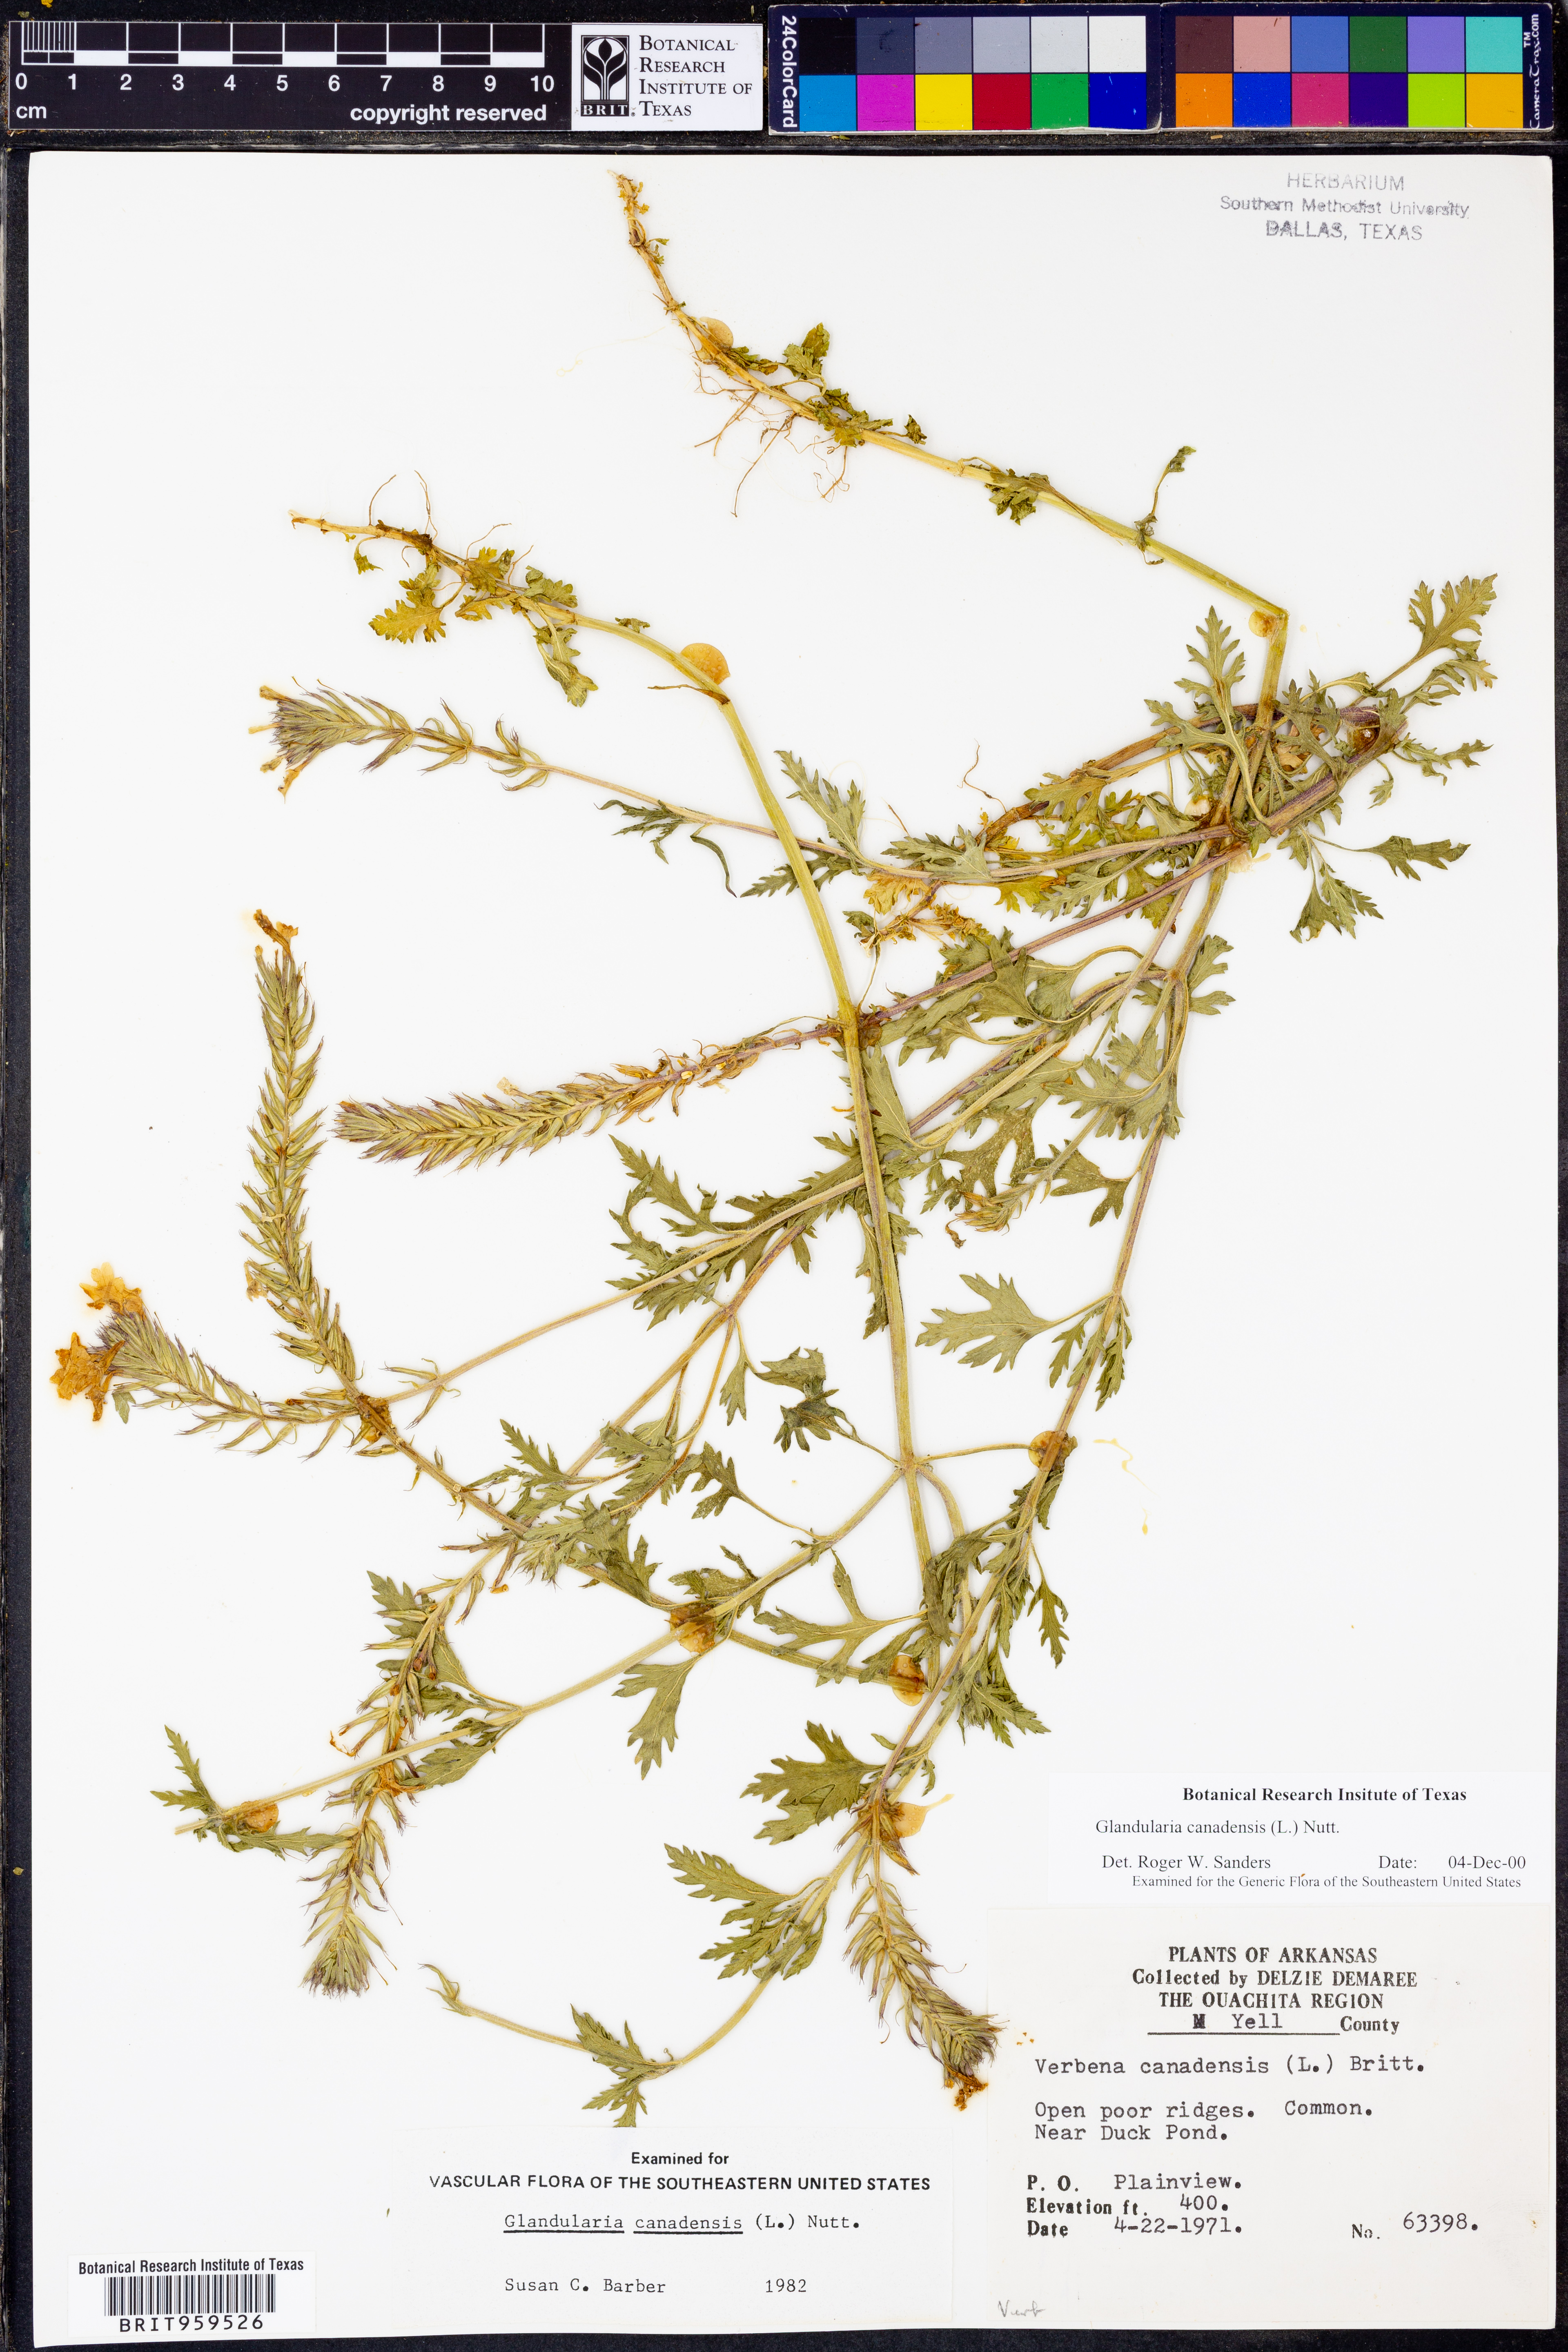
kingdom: Plantae
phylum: Tracheophyta
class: Magnoliopsida
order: Lamiales
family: Verbenaceae
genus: Verbena
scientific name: Verbena canadensis
